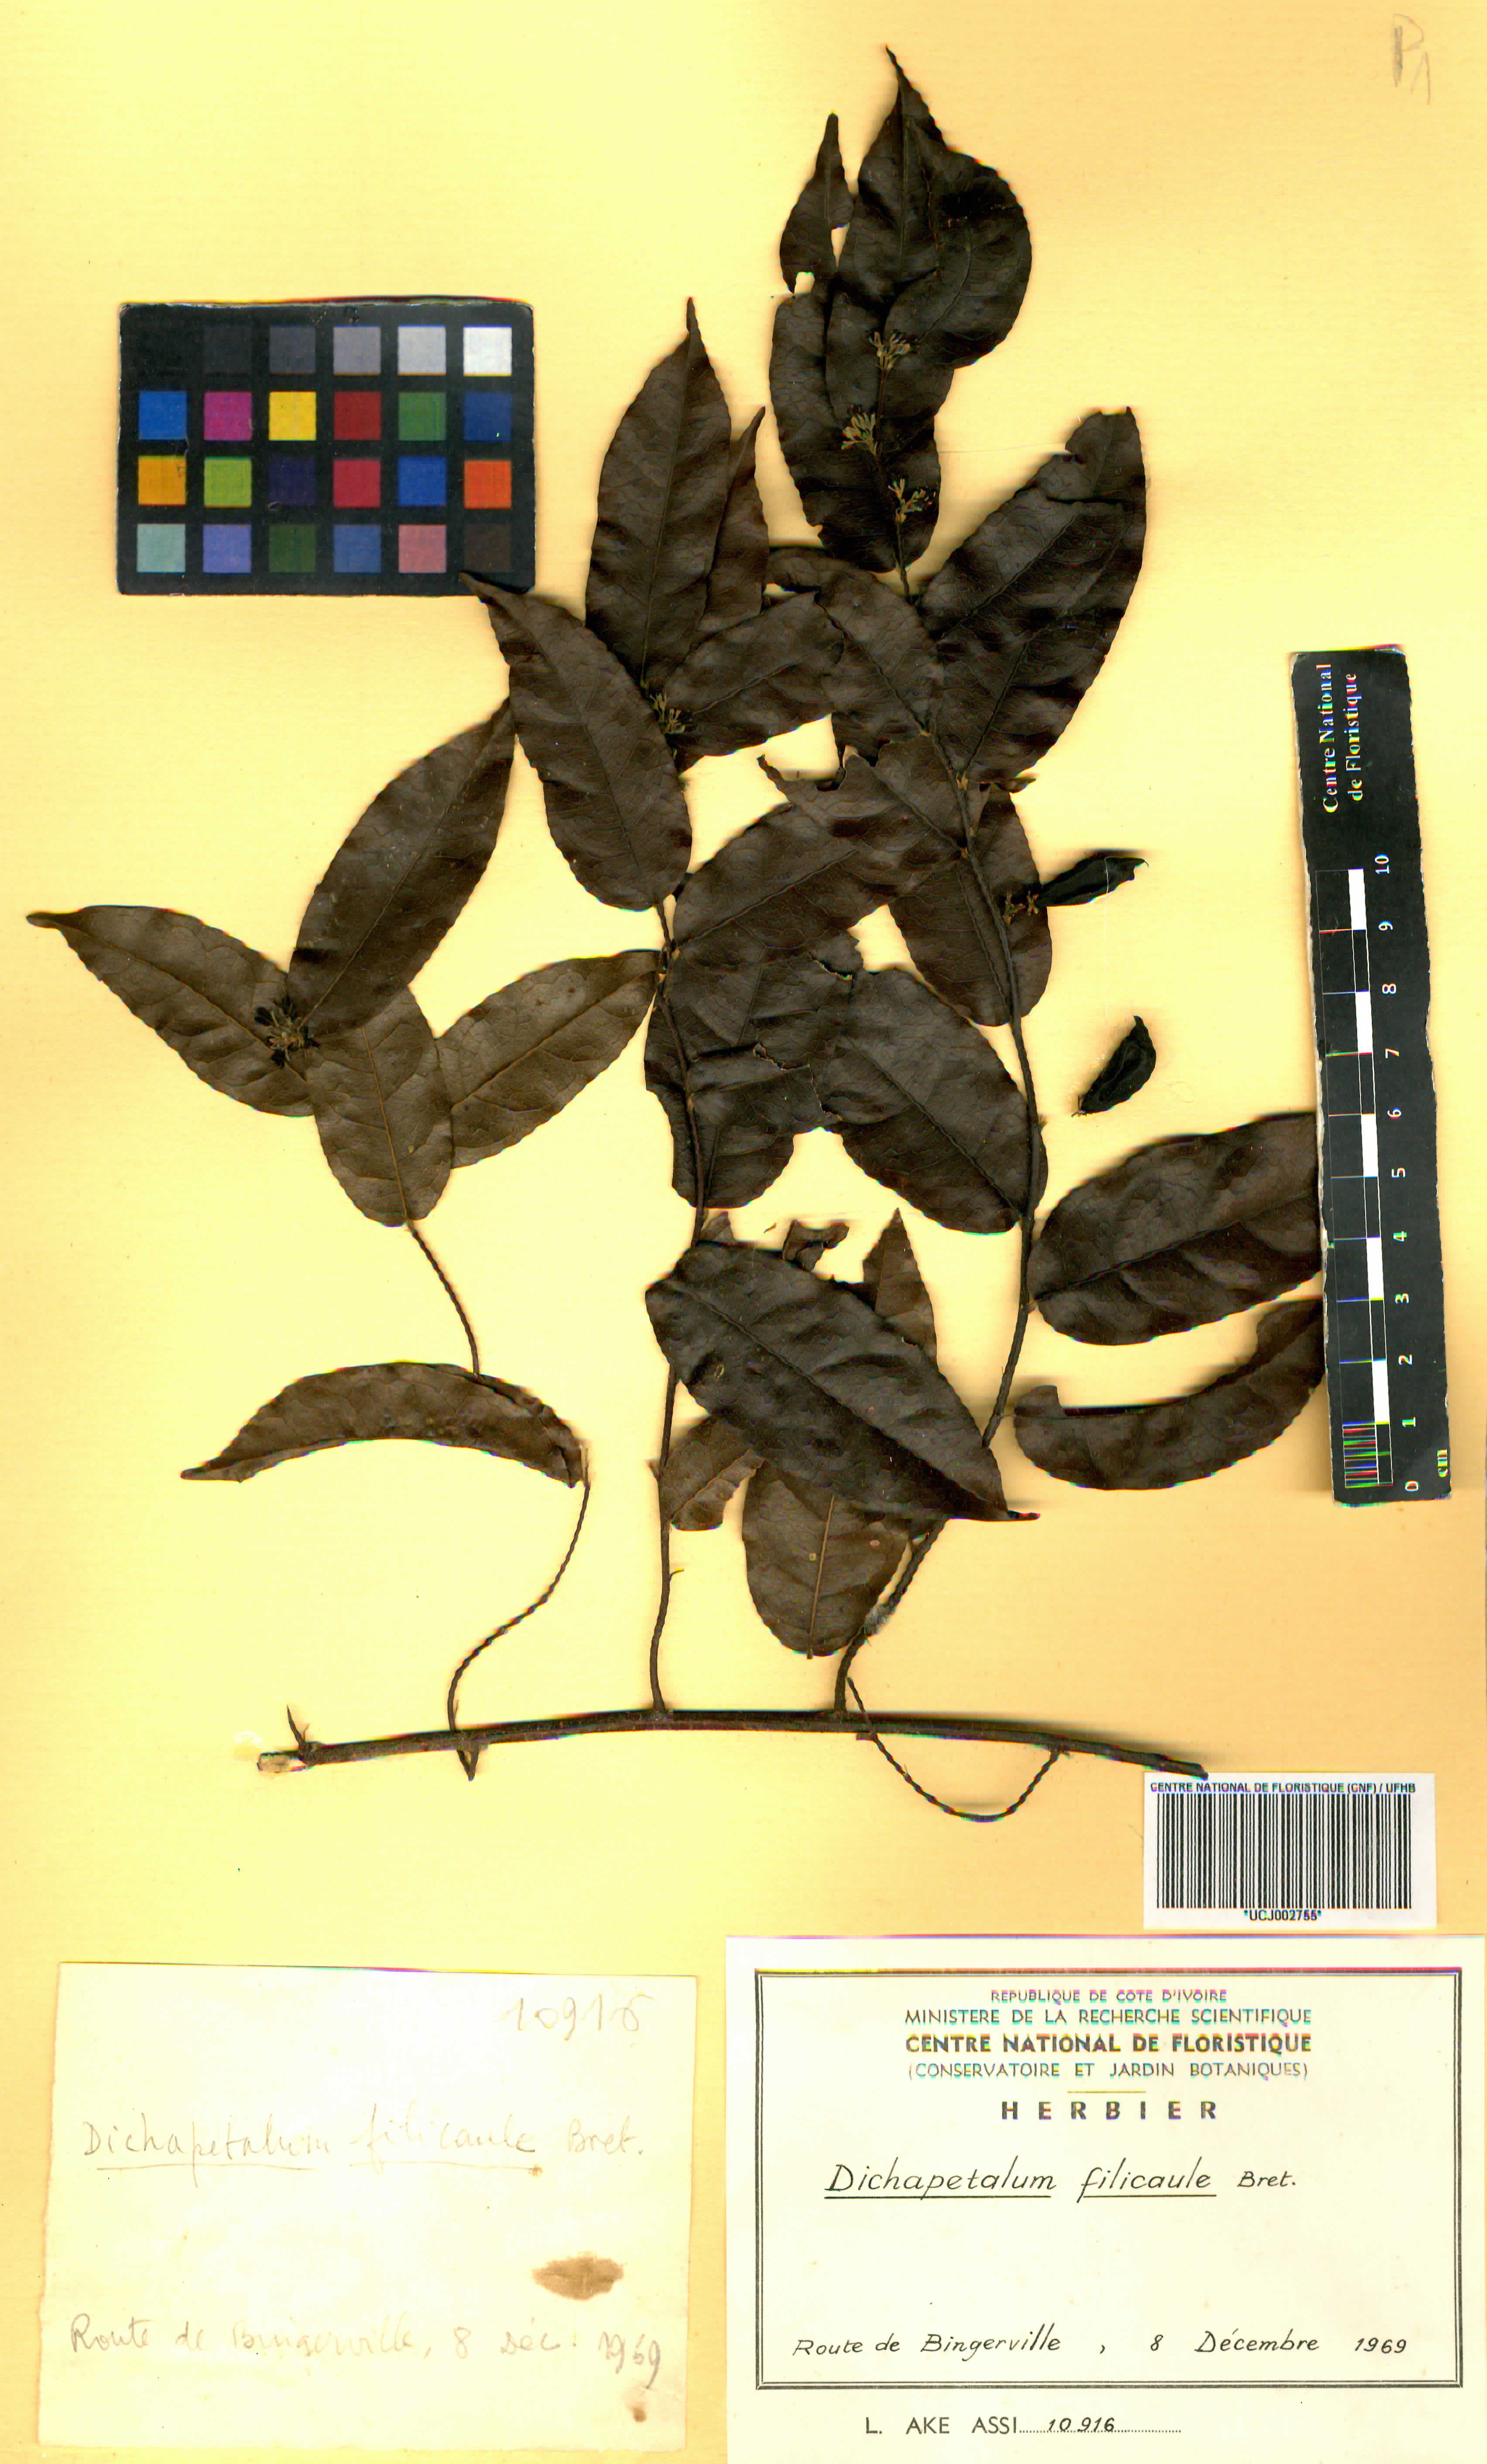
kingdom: Plantae
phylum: Tracheophyta
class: Magnoliopsida
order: Malpighiales
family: Dichapetalaceae
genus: Dichapetalum
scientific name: Dichapetalum filicaule
